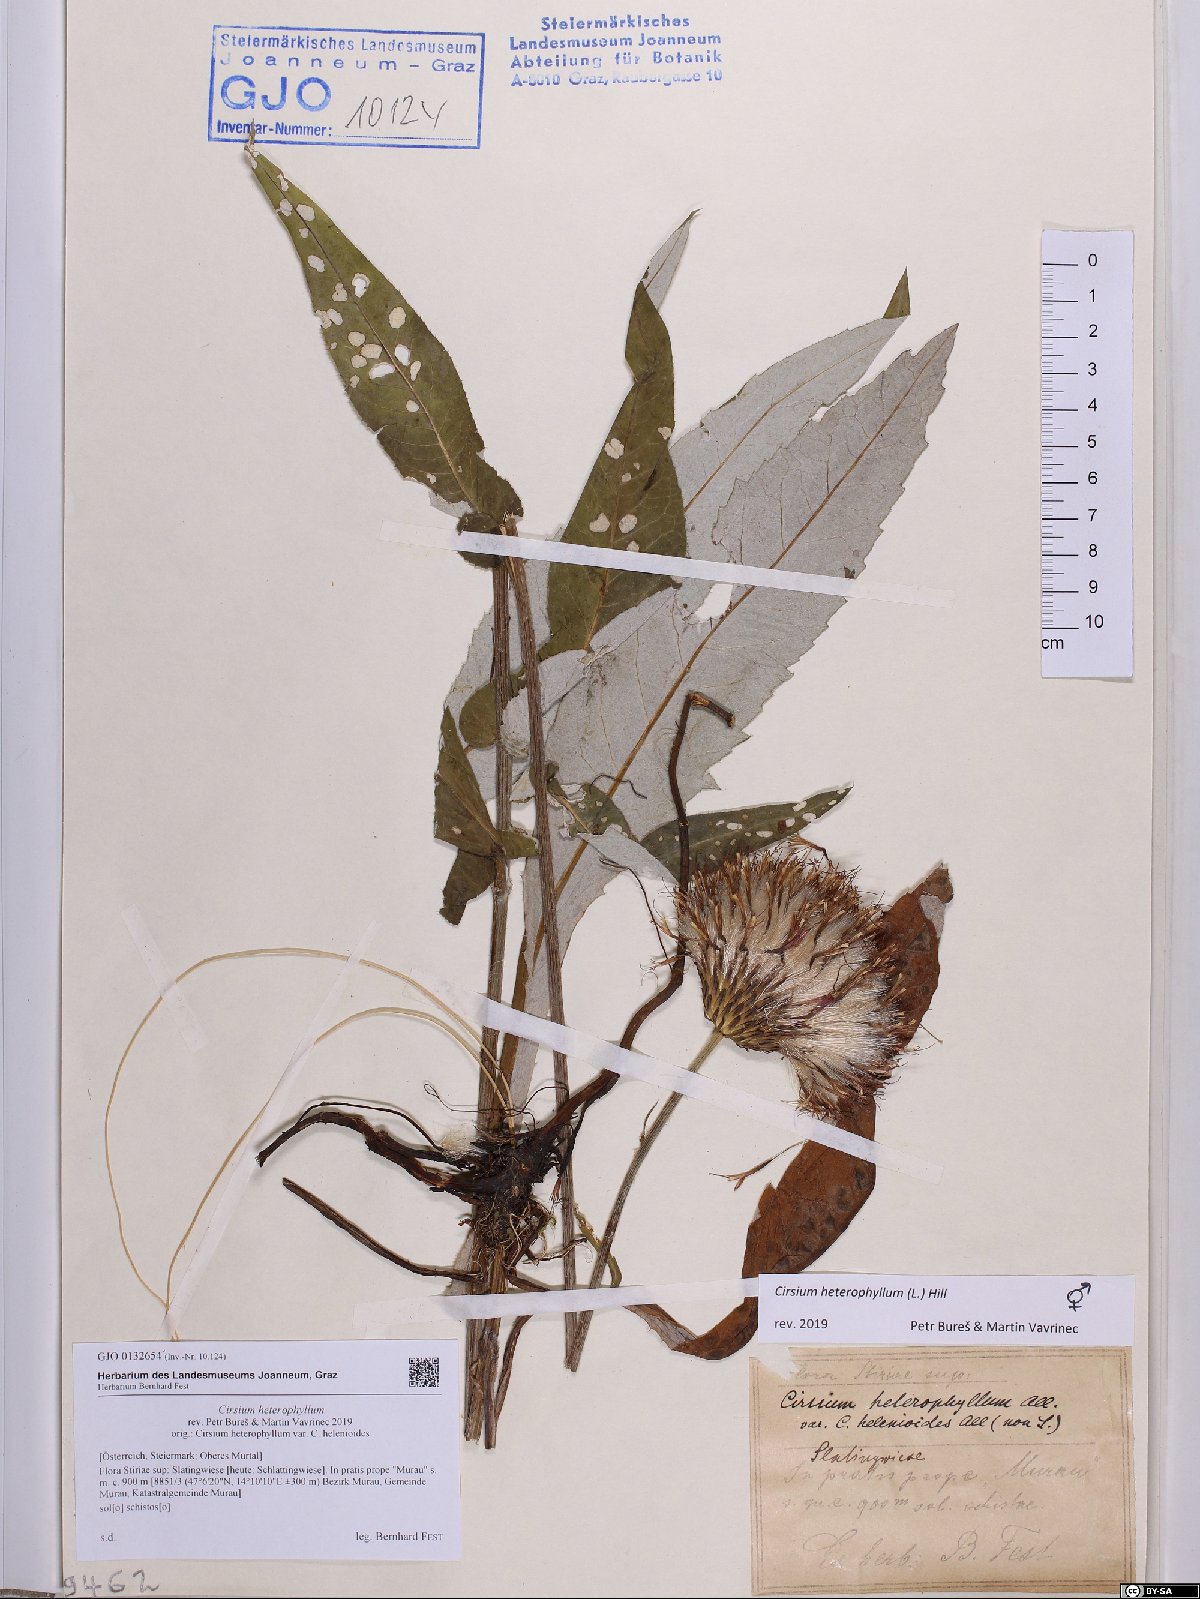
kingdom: Plantae
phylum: Tracheophyta
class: Magnoliopsida
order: Asterales
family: Asteraceae
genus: Cirsium
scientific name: Cirsium heterophyllum
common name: Melancholy thistle
